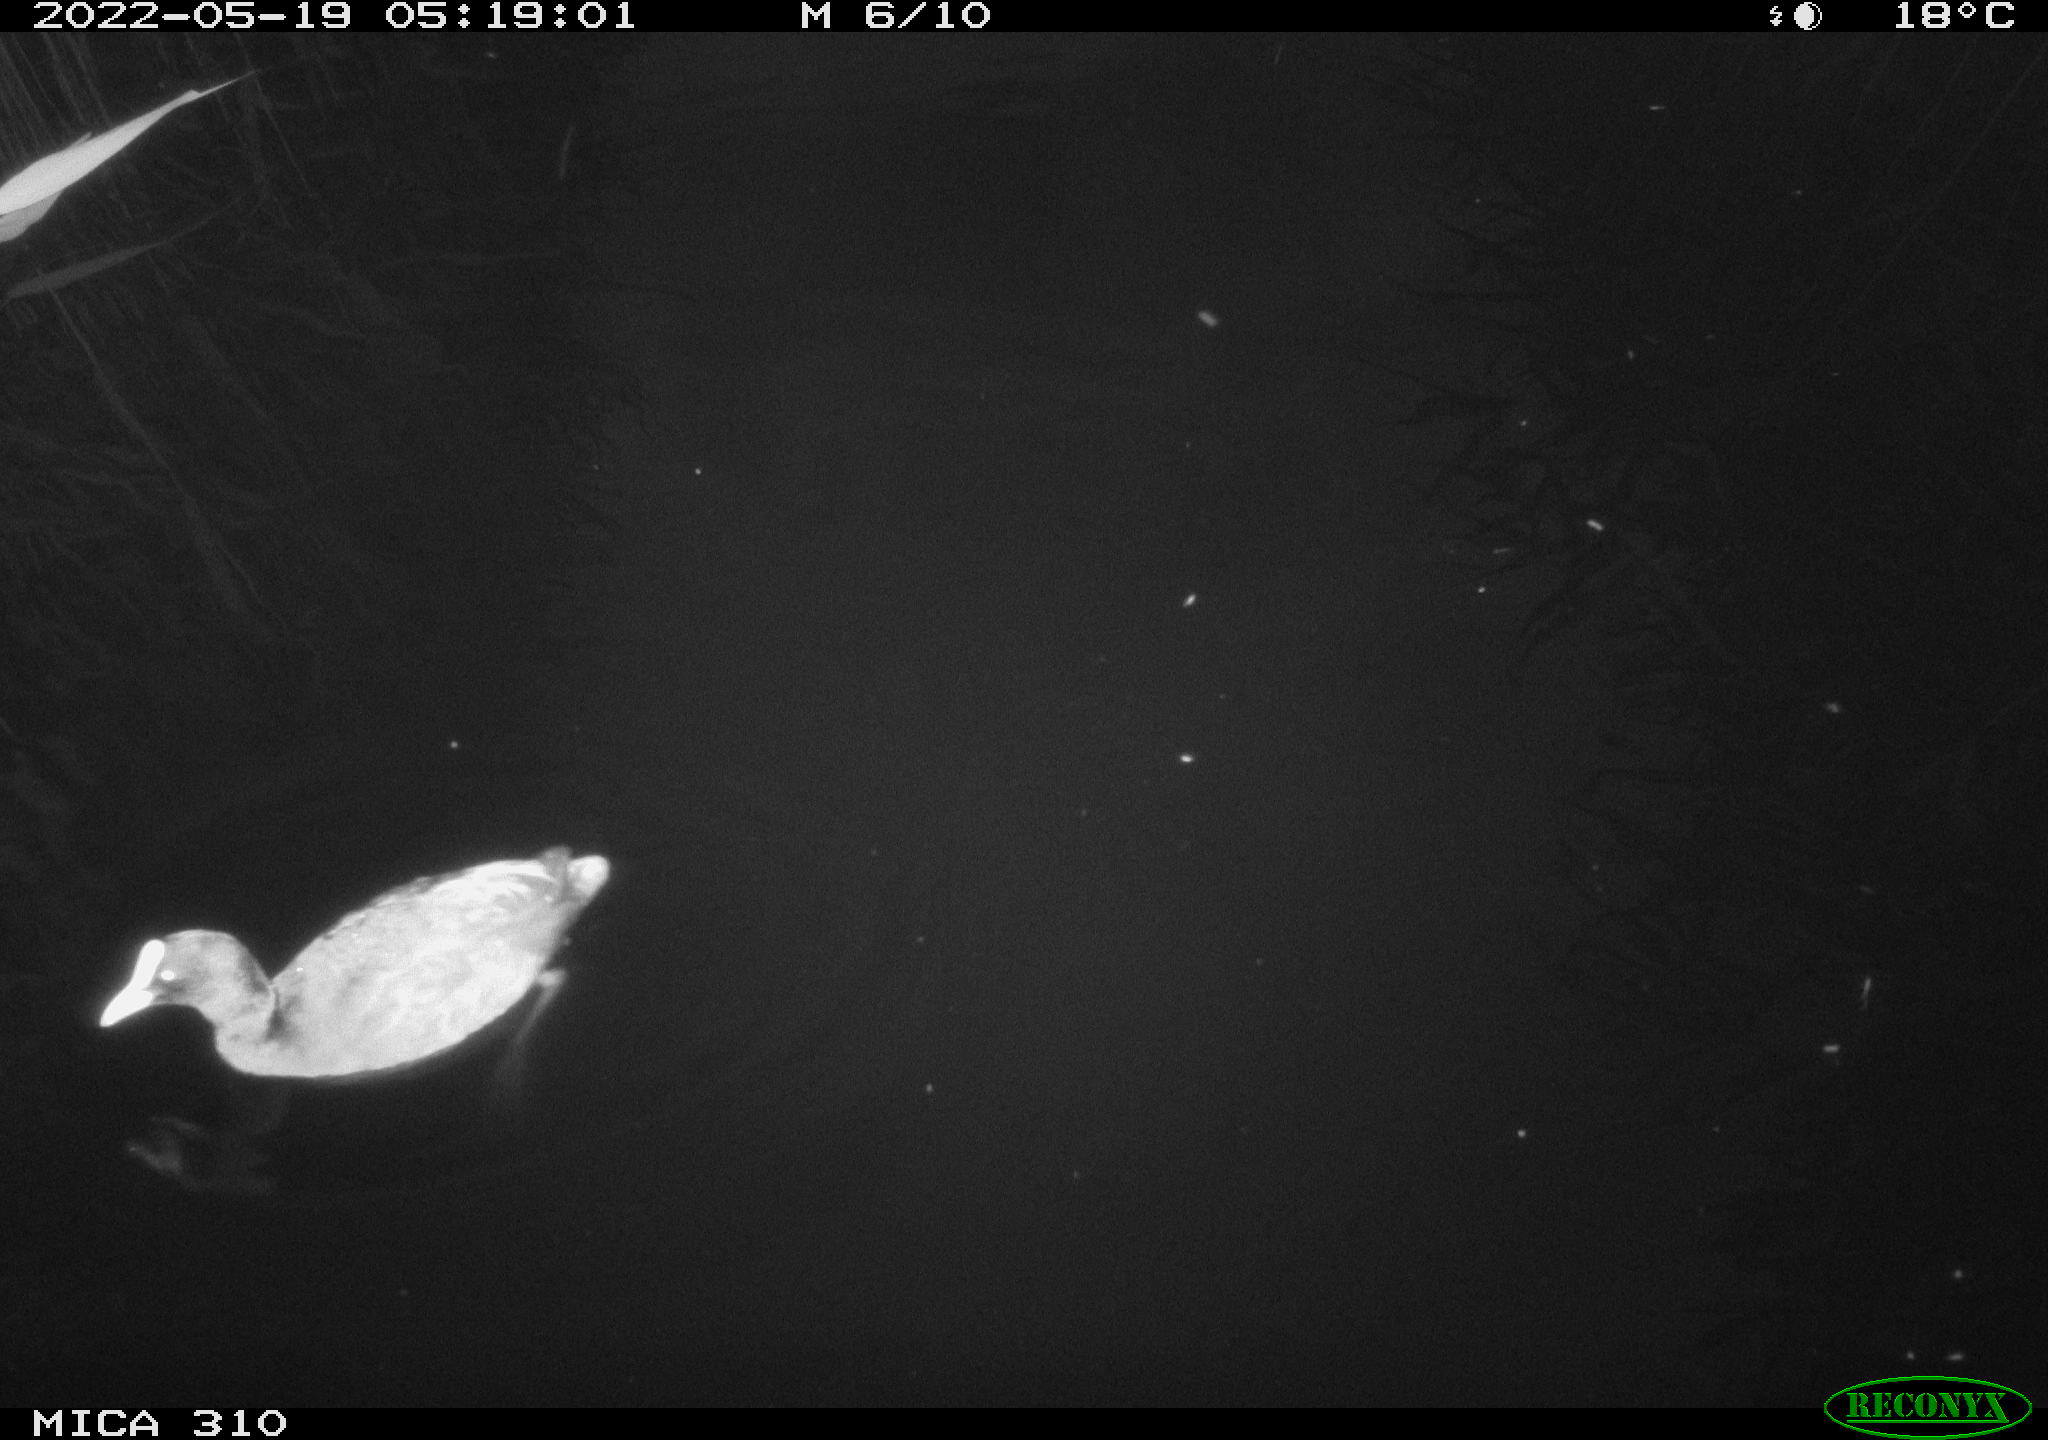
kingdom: Animalia
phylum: Chordata
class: Aves
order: Gruiformes
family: Rallidae
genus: Fulica
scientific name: Fulica atra
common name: Eurasian coot
